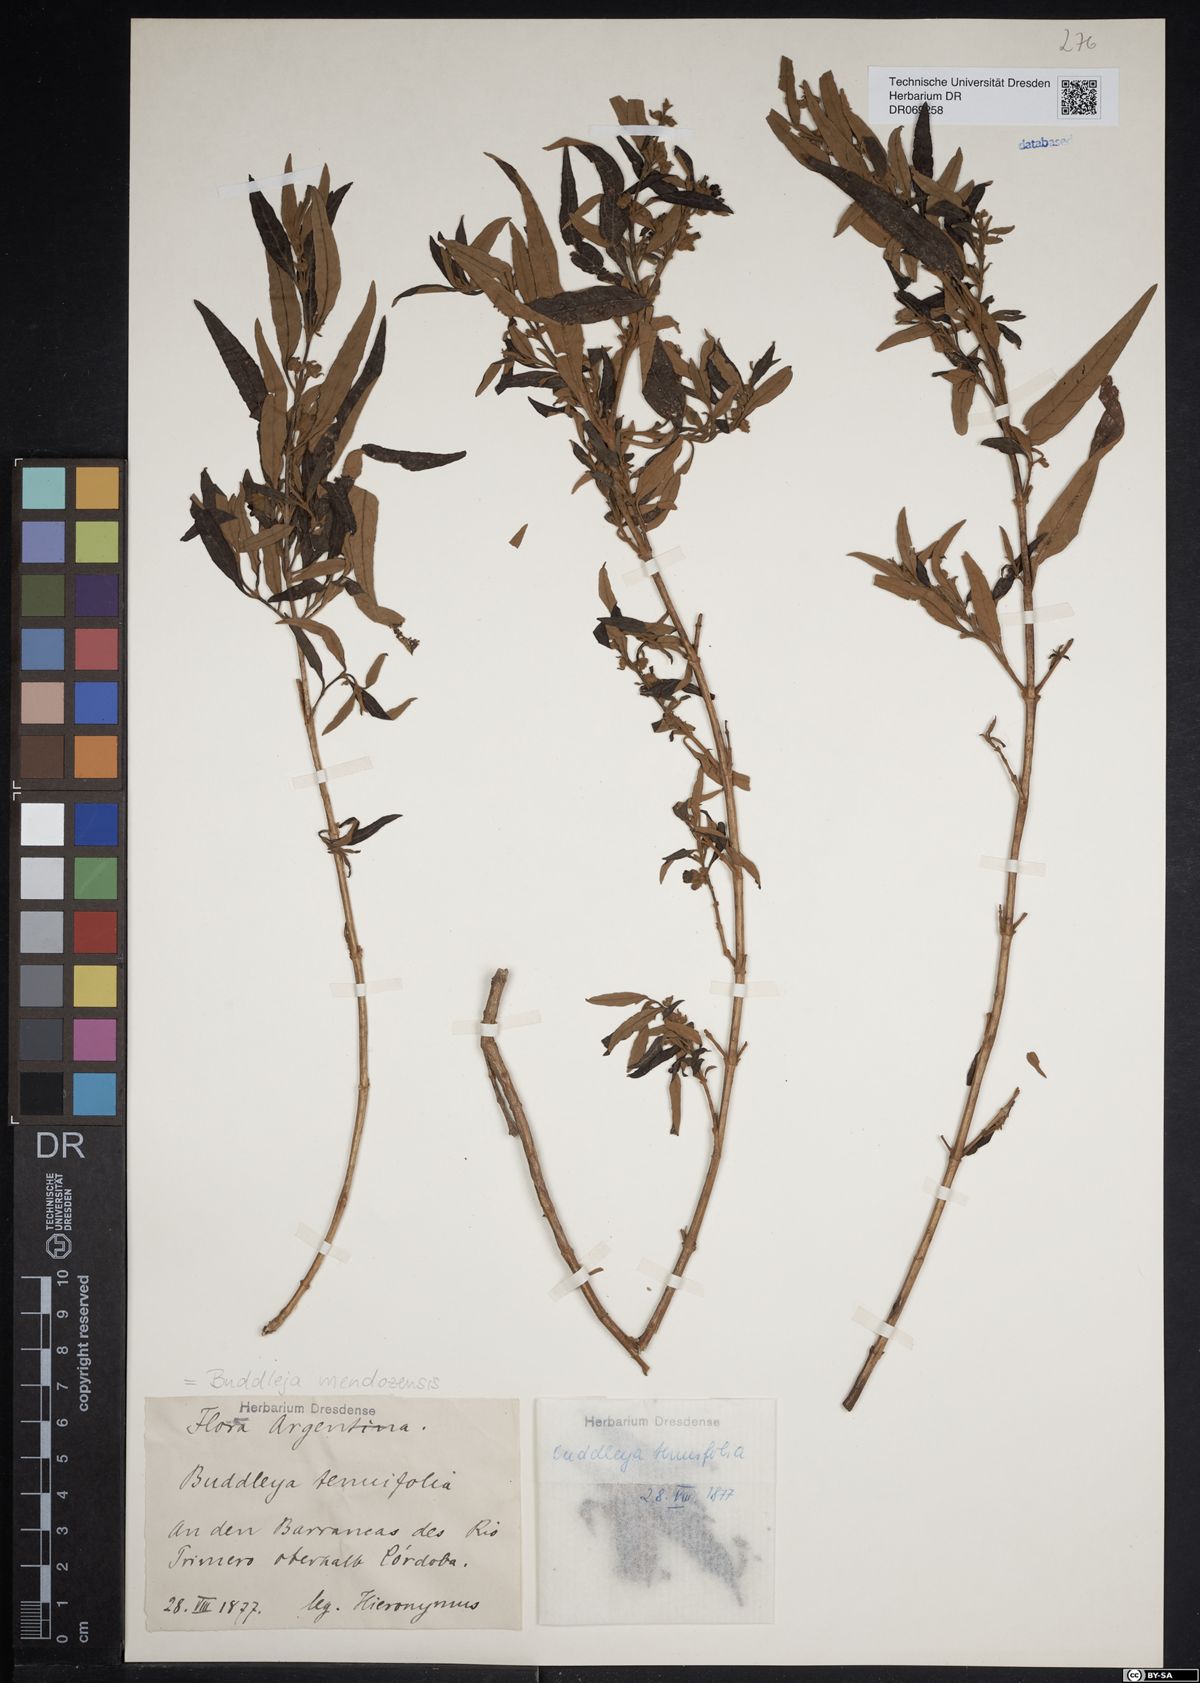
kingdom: Plantae
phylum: Tracheophyta
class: Magnoliopsida
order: Lamiales
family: Scrophulariaceae
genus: Buddleja
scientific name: Buddleja mendozensis
